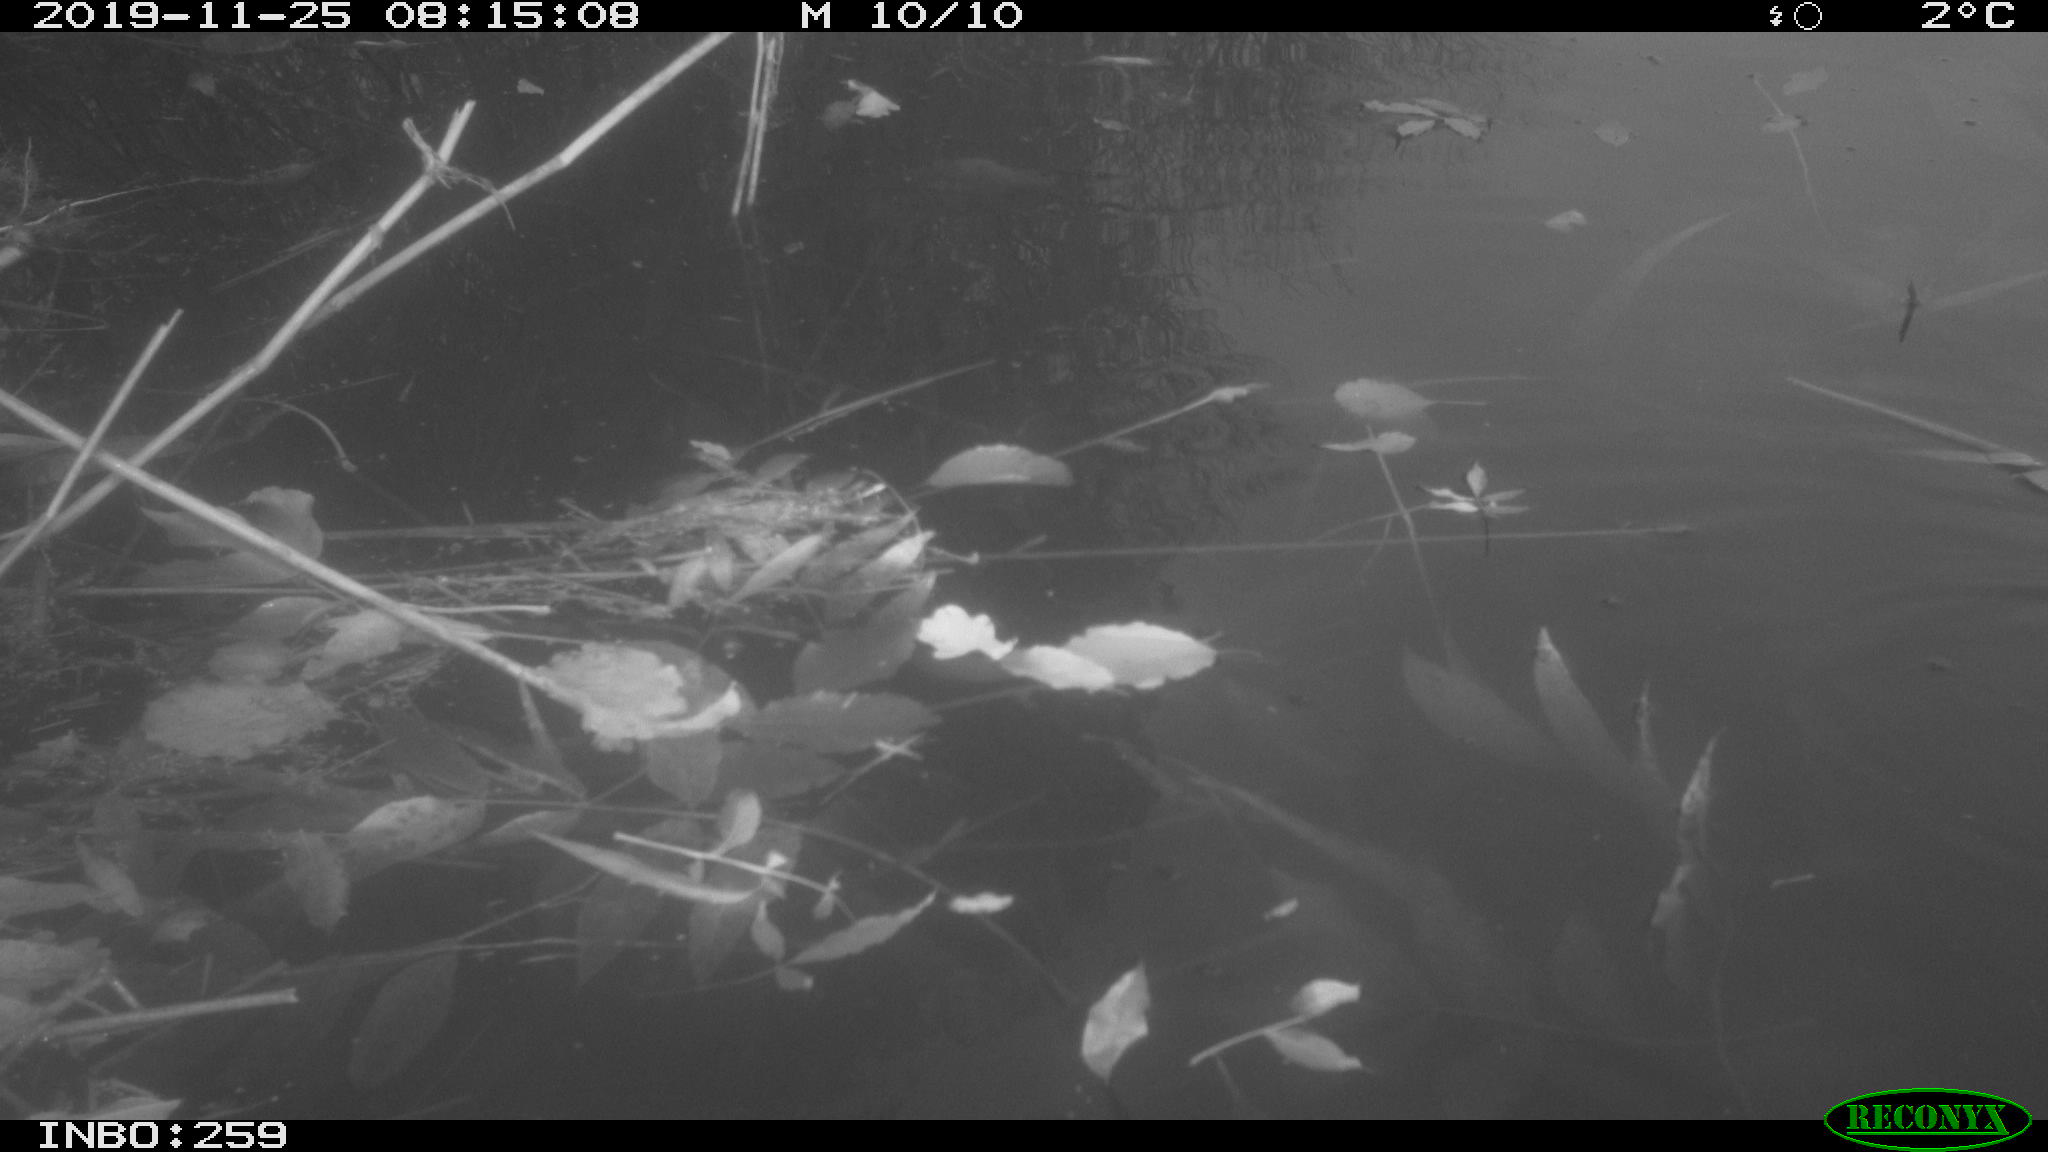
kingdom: Animalia
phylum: Chordata
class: Aves
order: Gruiformes
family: Rallidae
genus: Gallinula
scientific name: Gallinula chloropus
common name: Common moorhen
